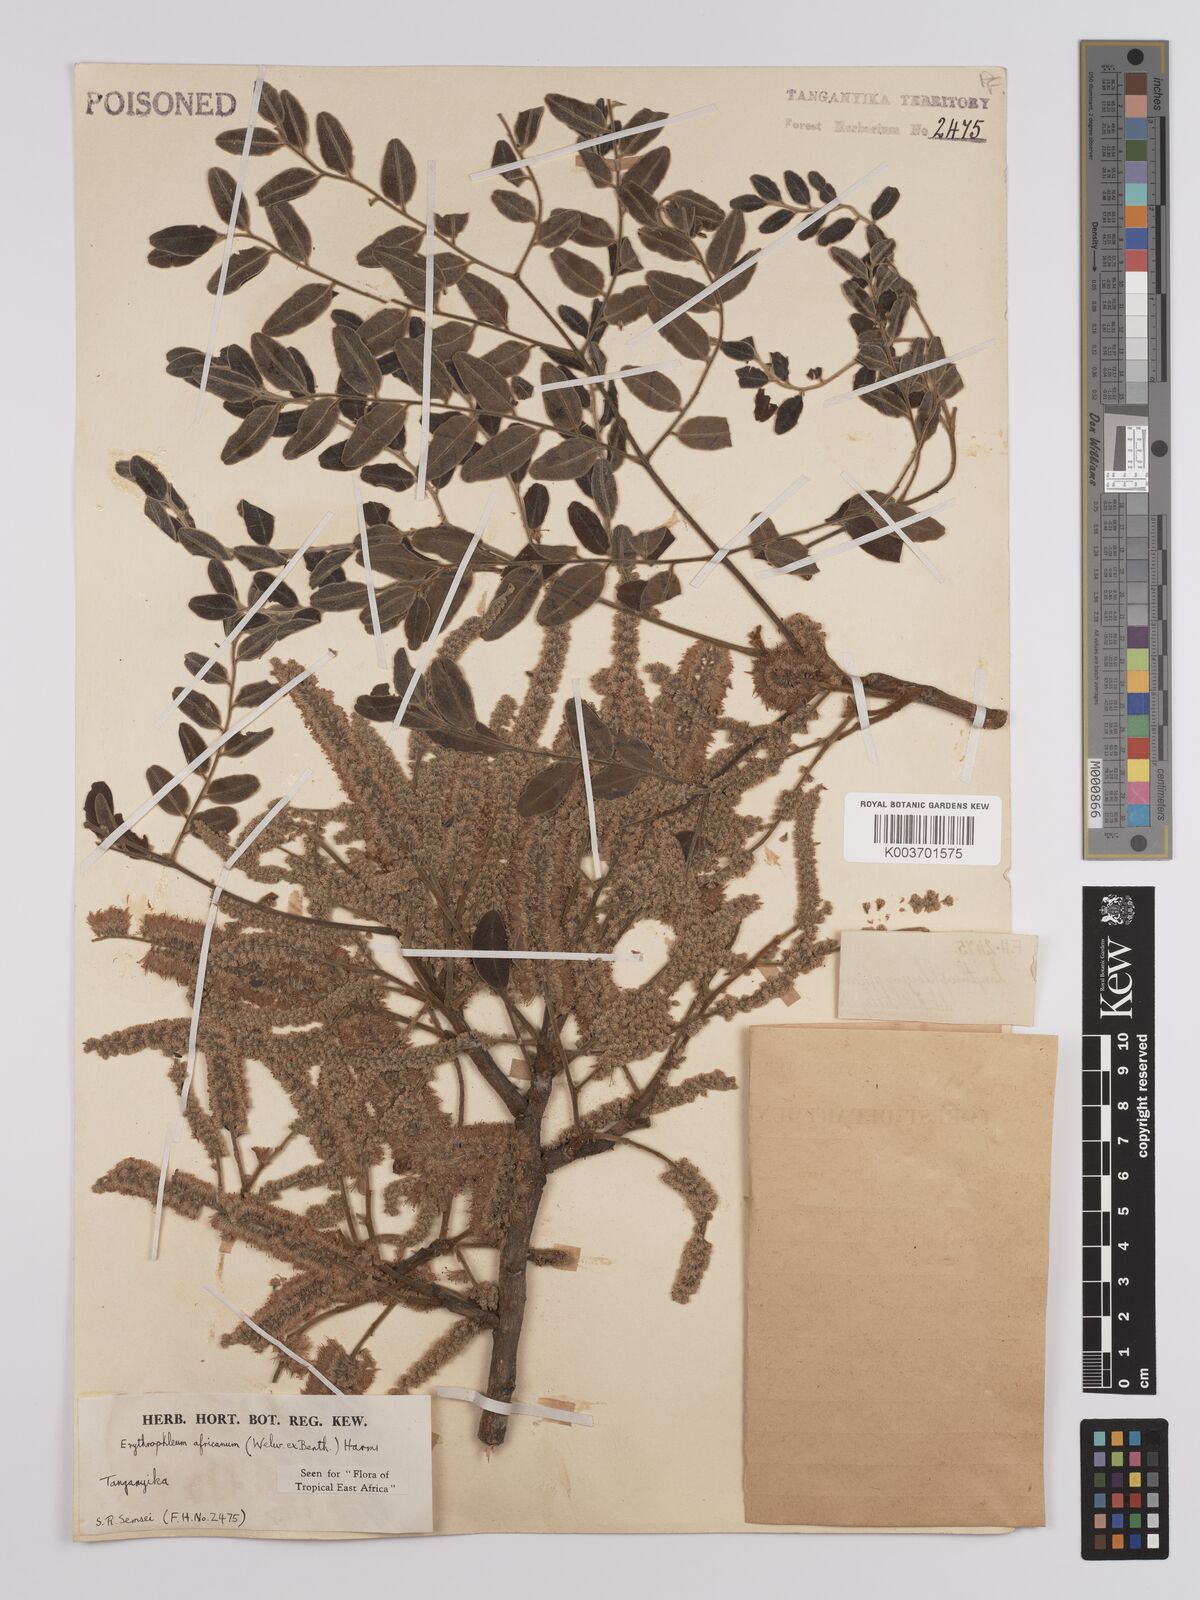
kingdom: Plantae
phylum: Tracheophyta
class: Magnoliopsida
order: Fabales
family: Fabaceae
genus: Erythrophleum
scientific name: Erythrophleum africanum
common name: African blackwood
